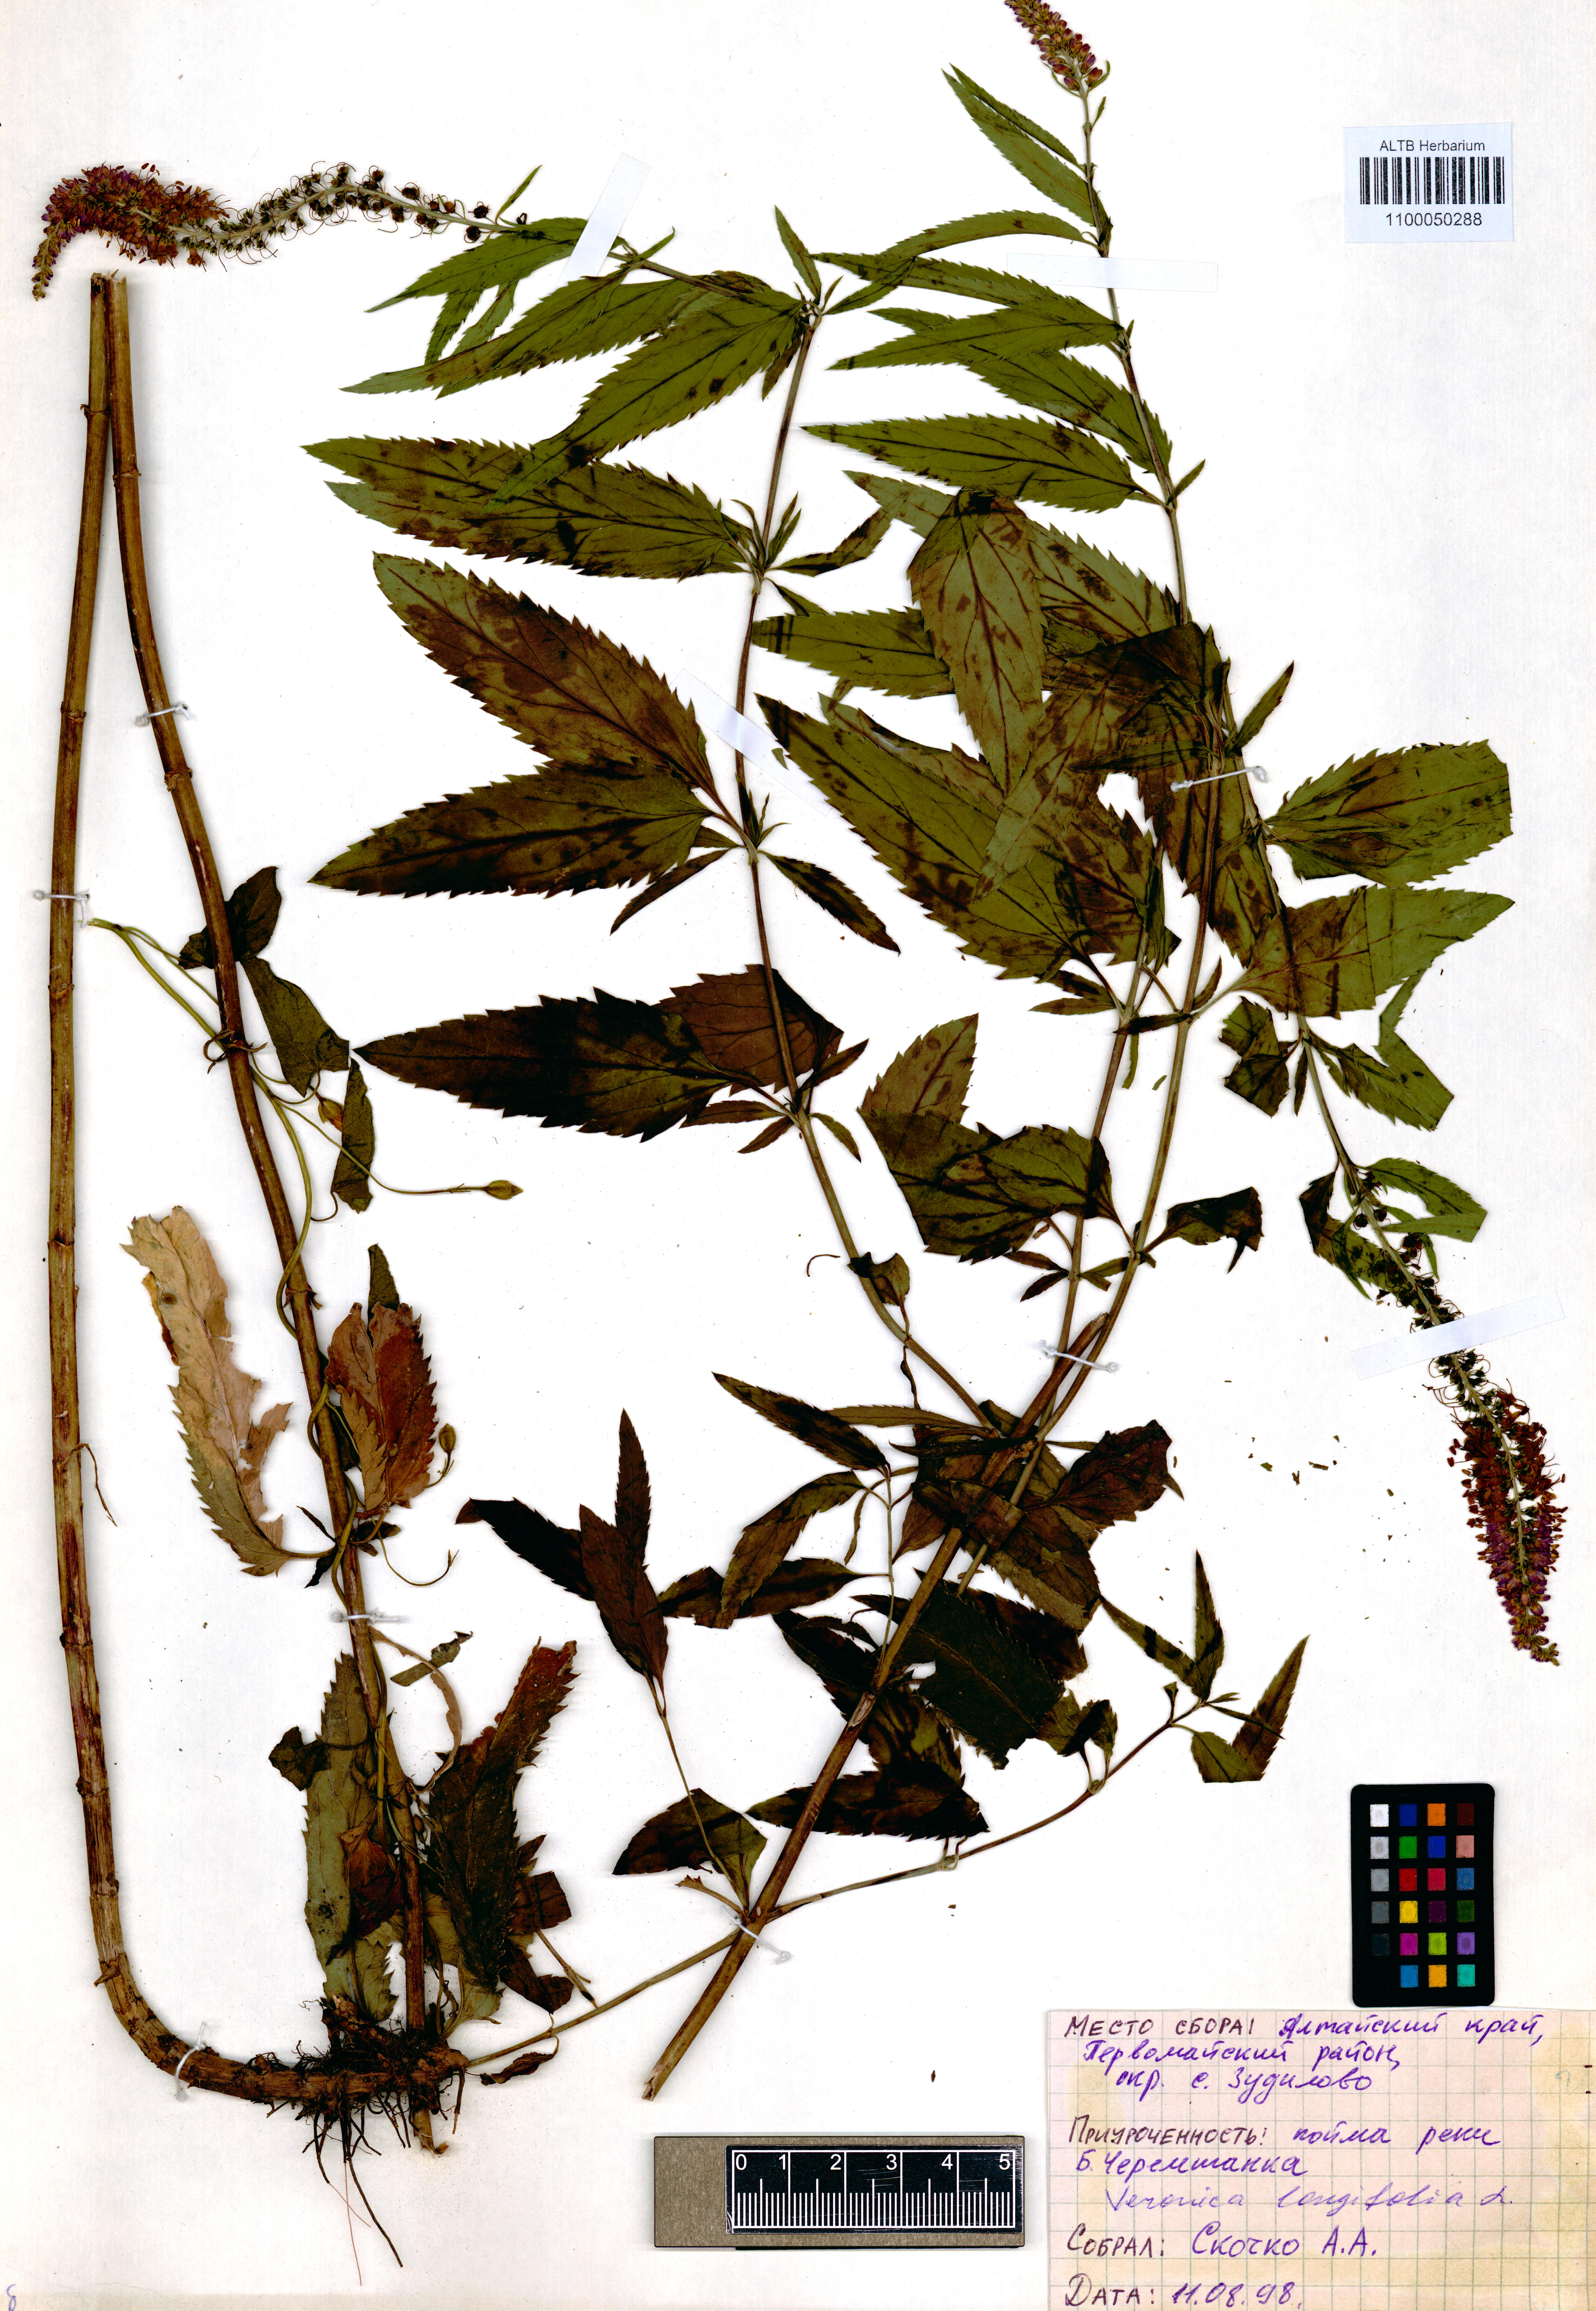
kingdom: Plantae
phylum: Tracheophyta
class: Magnoliopsida
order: Lamiales
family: Plantaginaceae
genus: Veronica
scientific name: Veronica longifolia
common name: Garden speedwell
